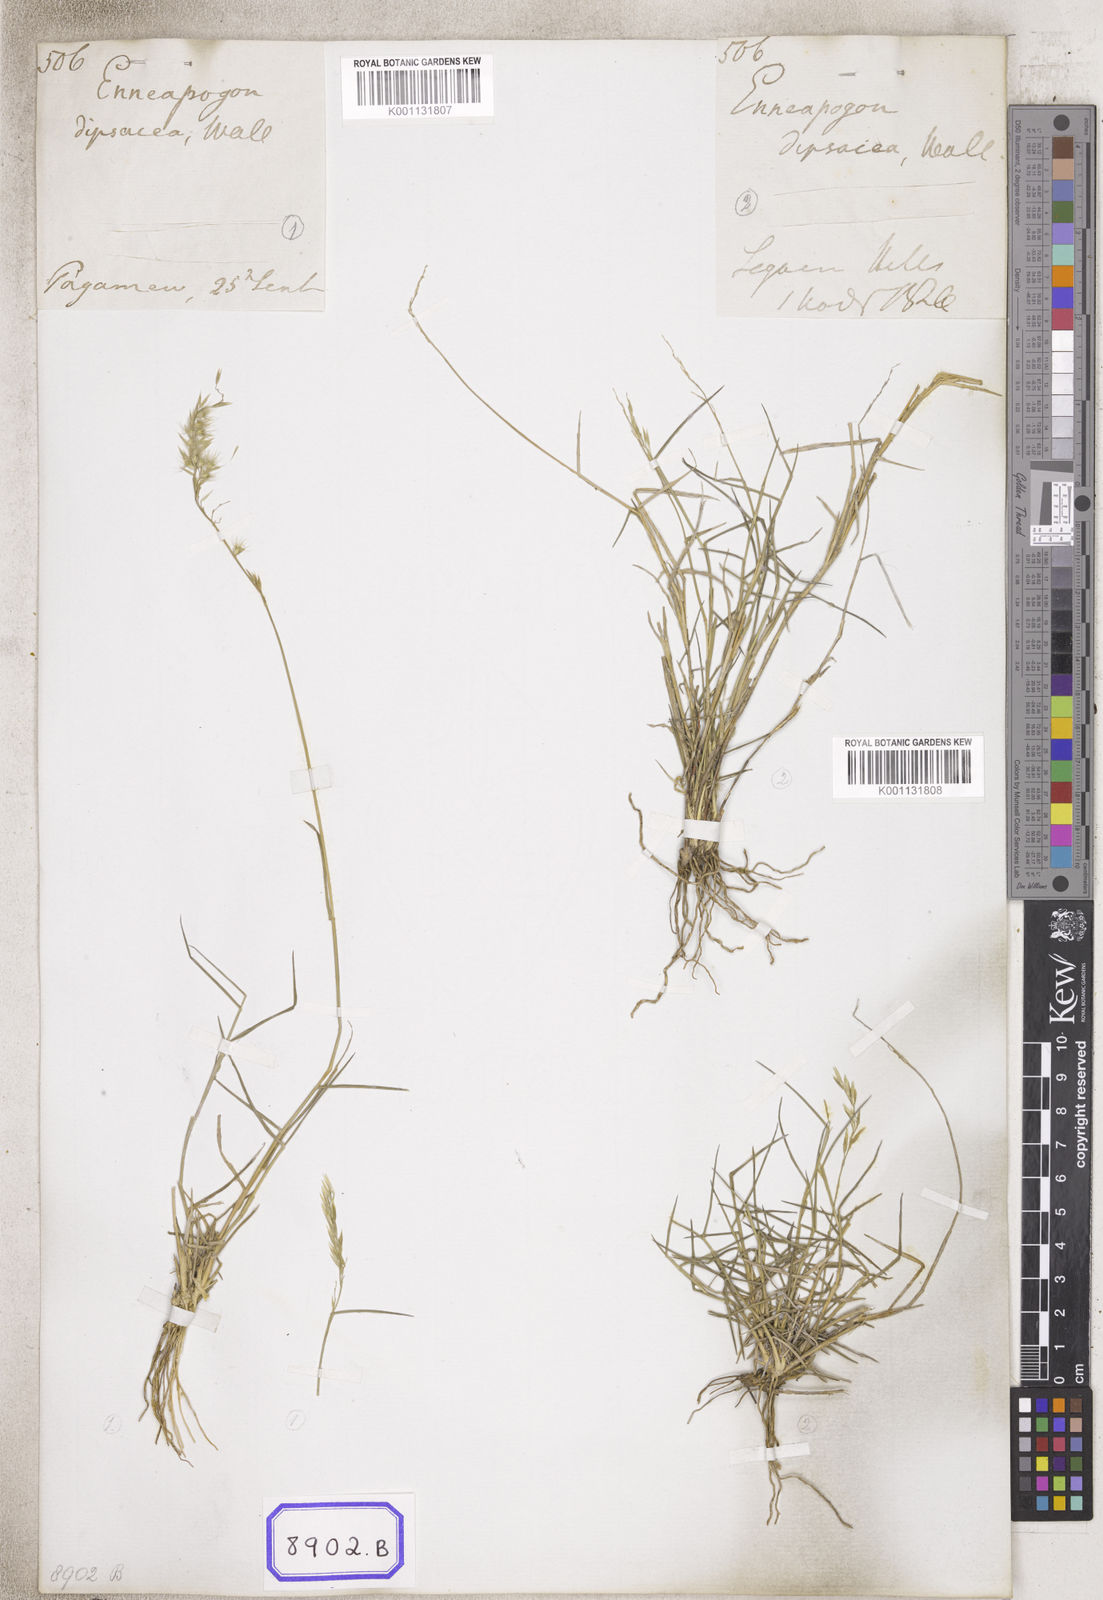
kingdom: Plantae
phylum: Tracheophyta
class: Liliopsida
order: Poales
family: Poaceae
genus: Pappophorum
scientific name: Pappophorum
